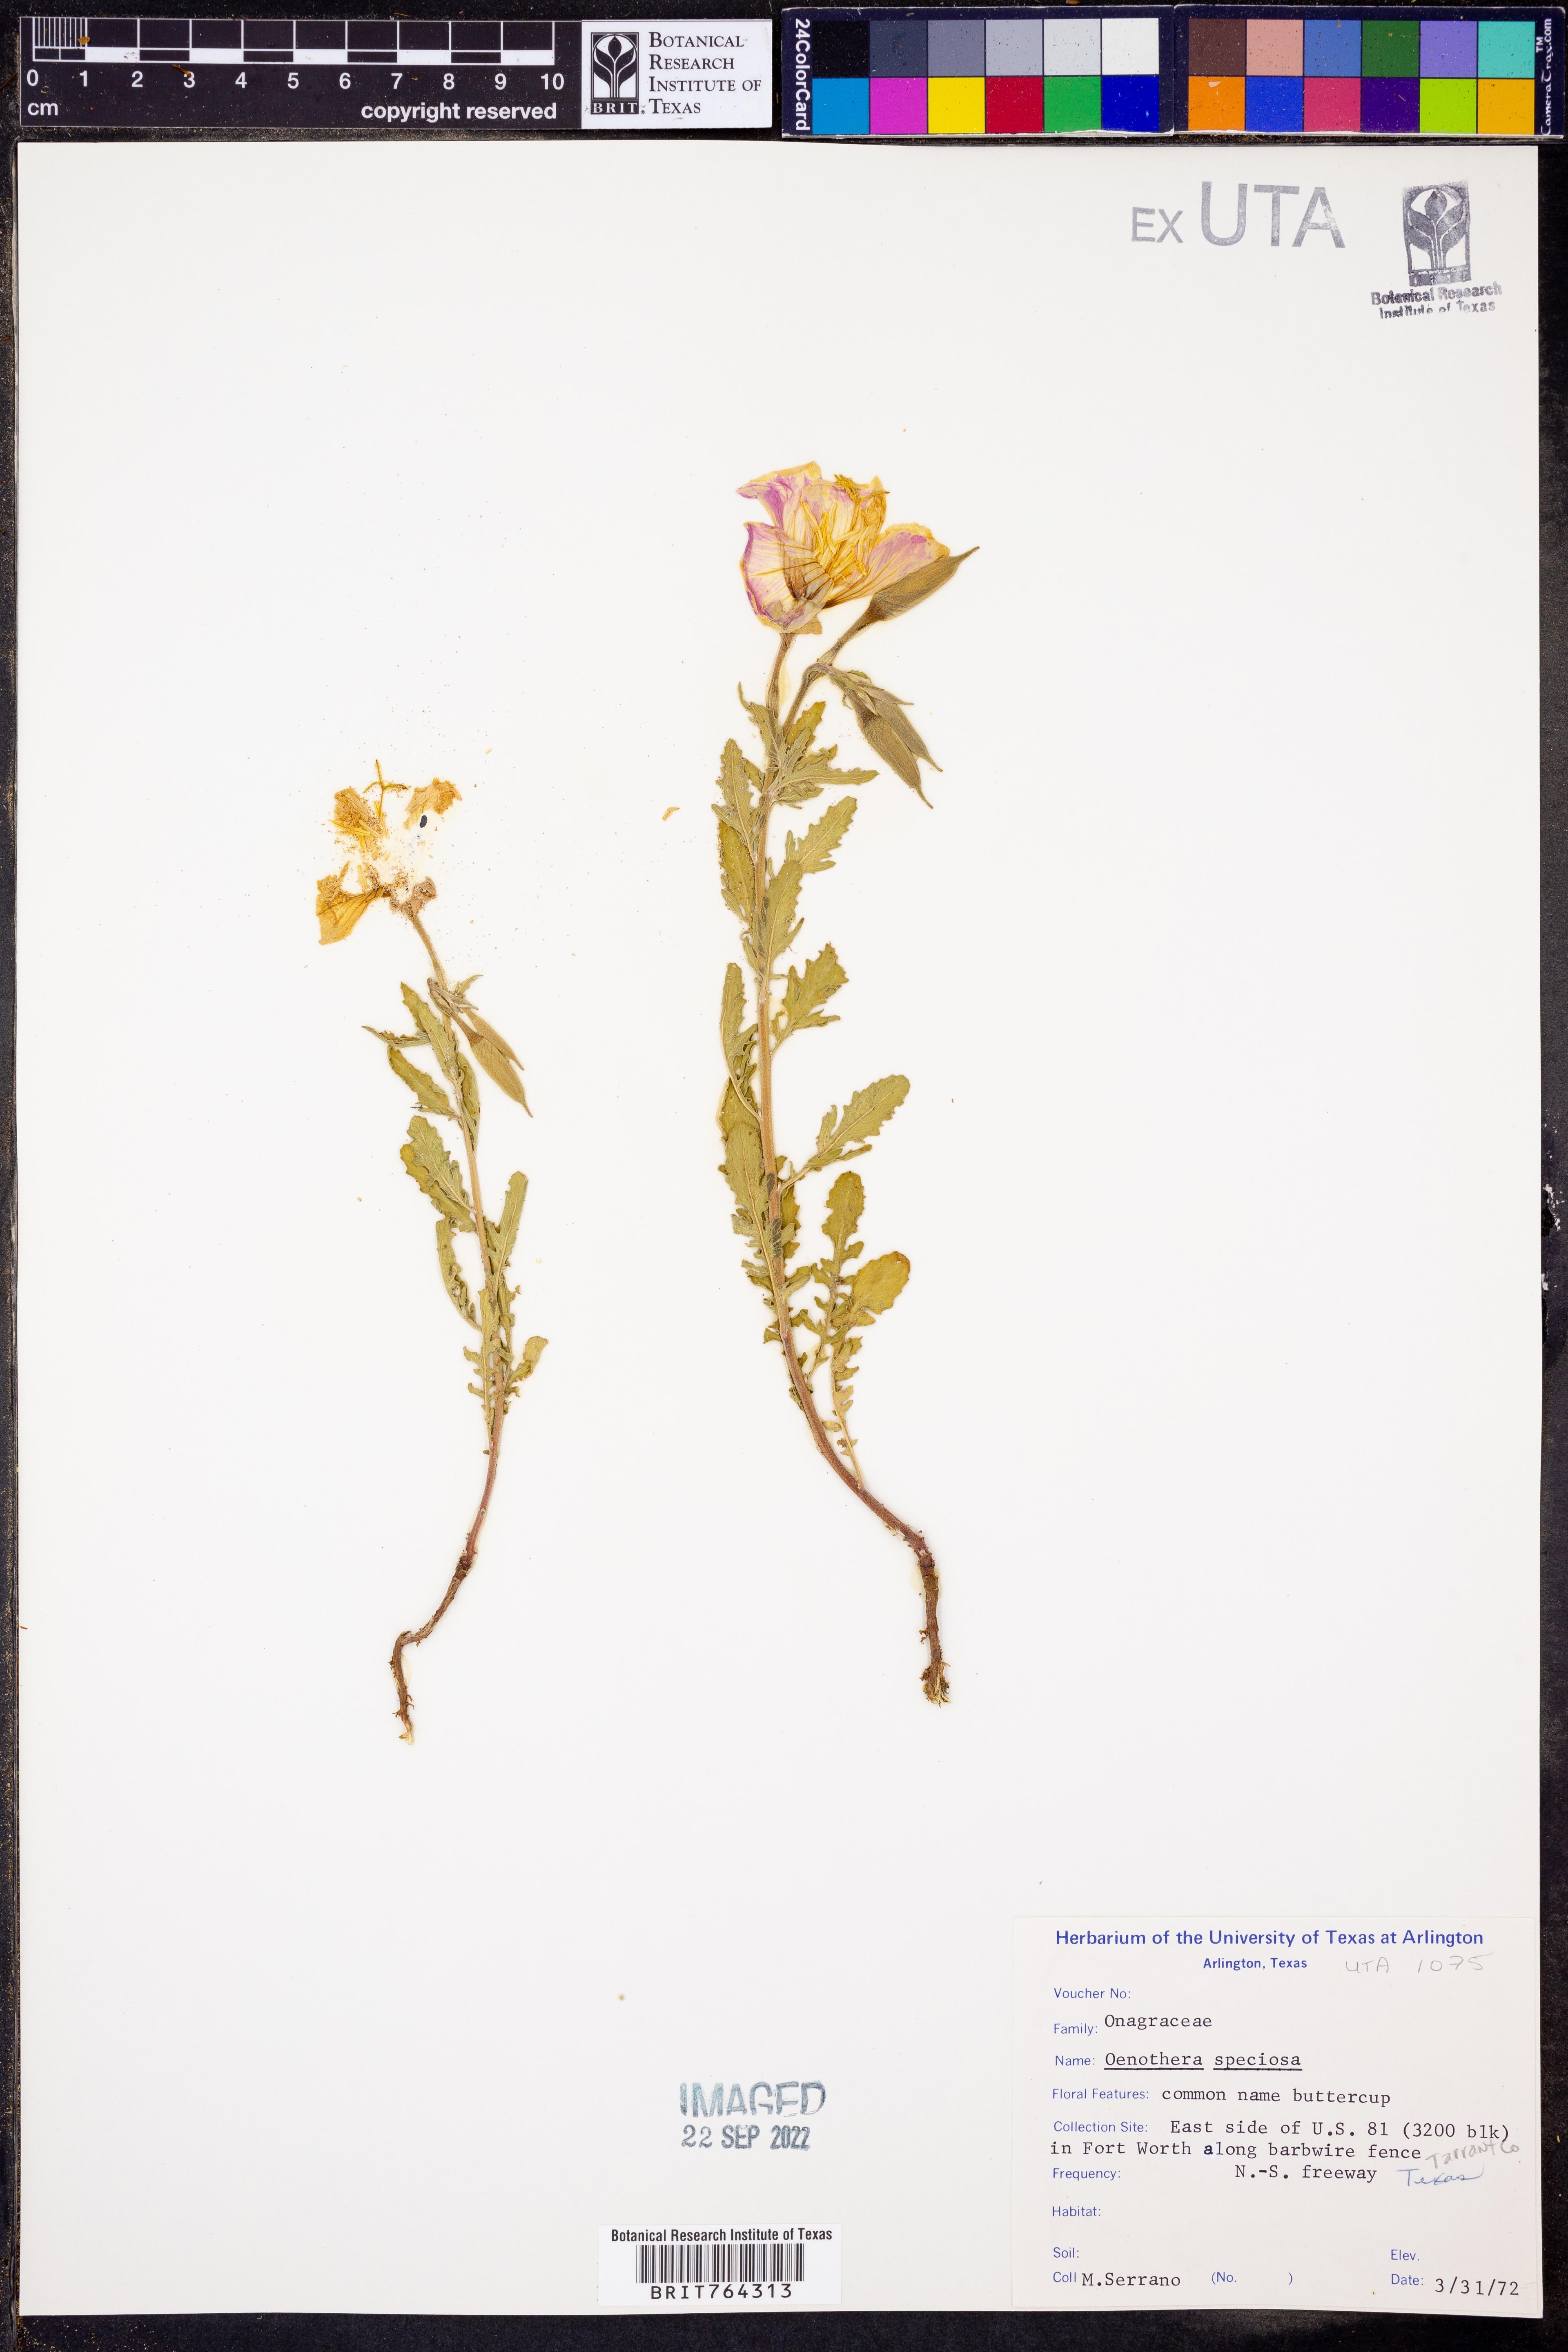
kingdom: Plantae
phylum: Tracheophyta
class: Magnoliopsida
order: Myrtales
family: Onagraceae
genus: Oenothera
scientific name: Oenothera speciosa
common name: White evening-primrose
